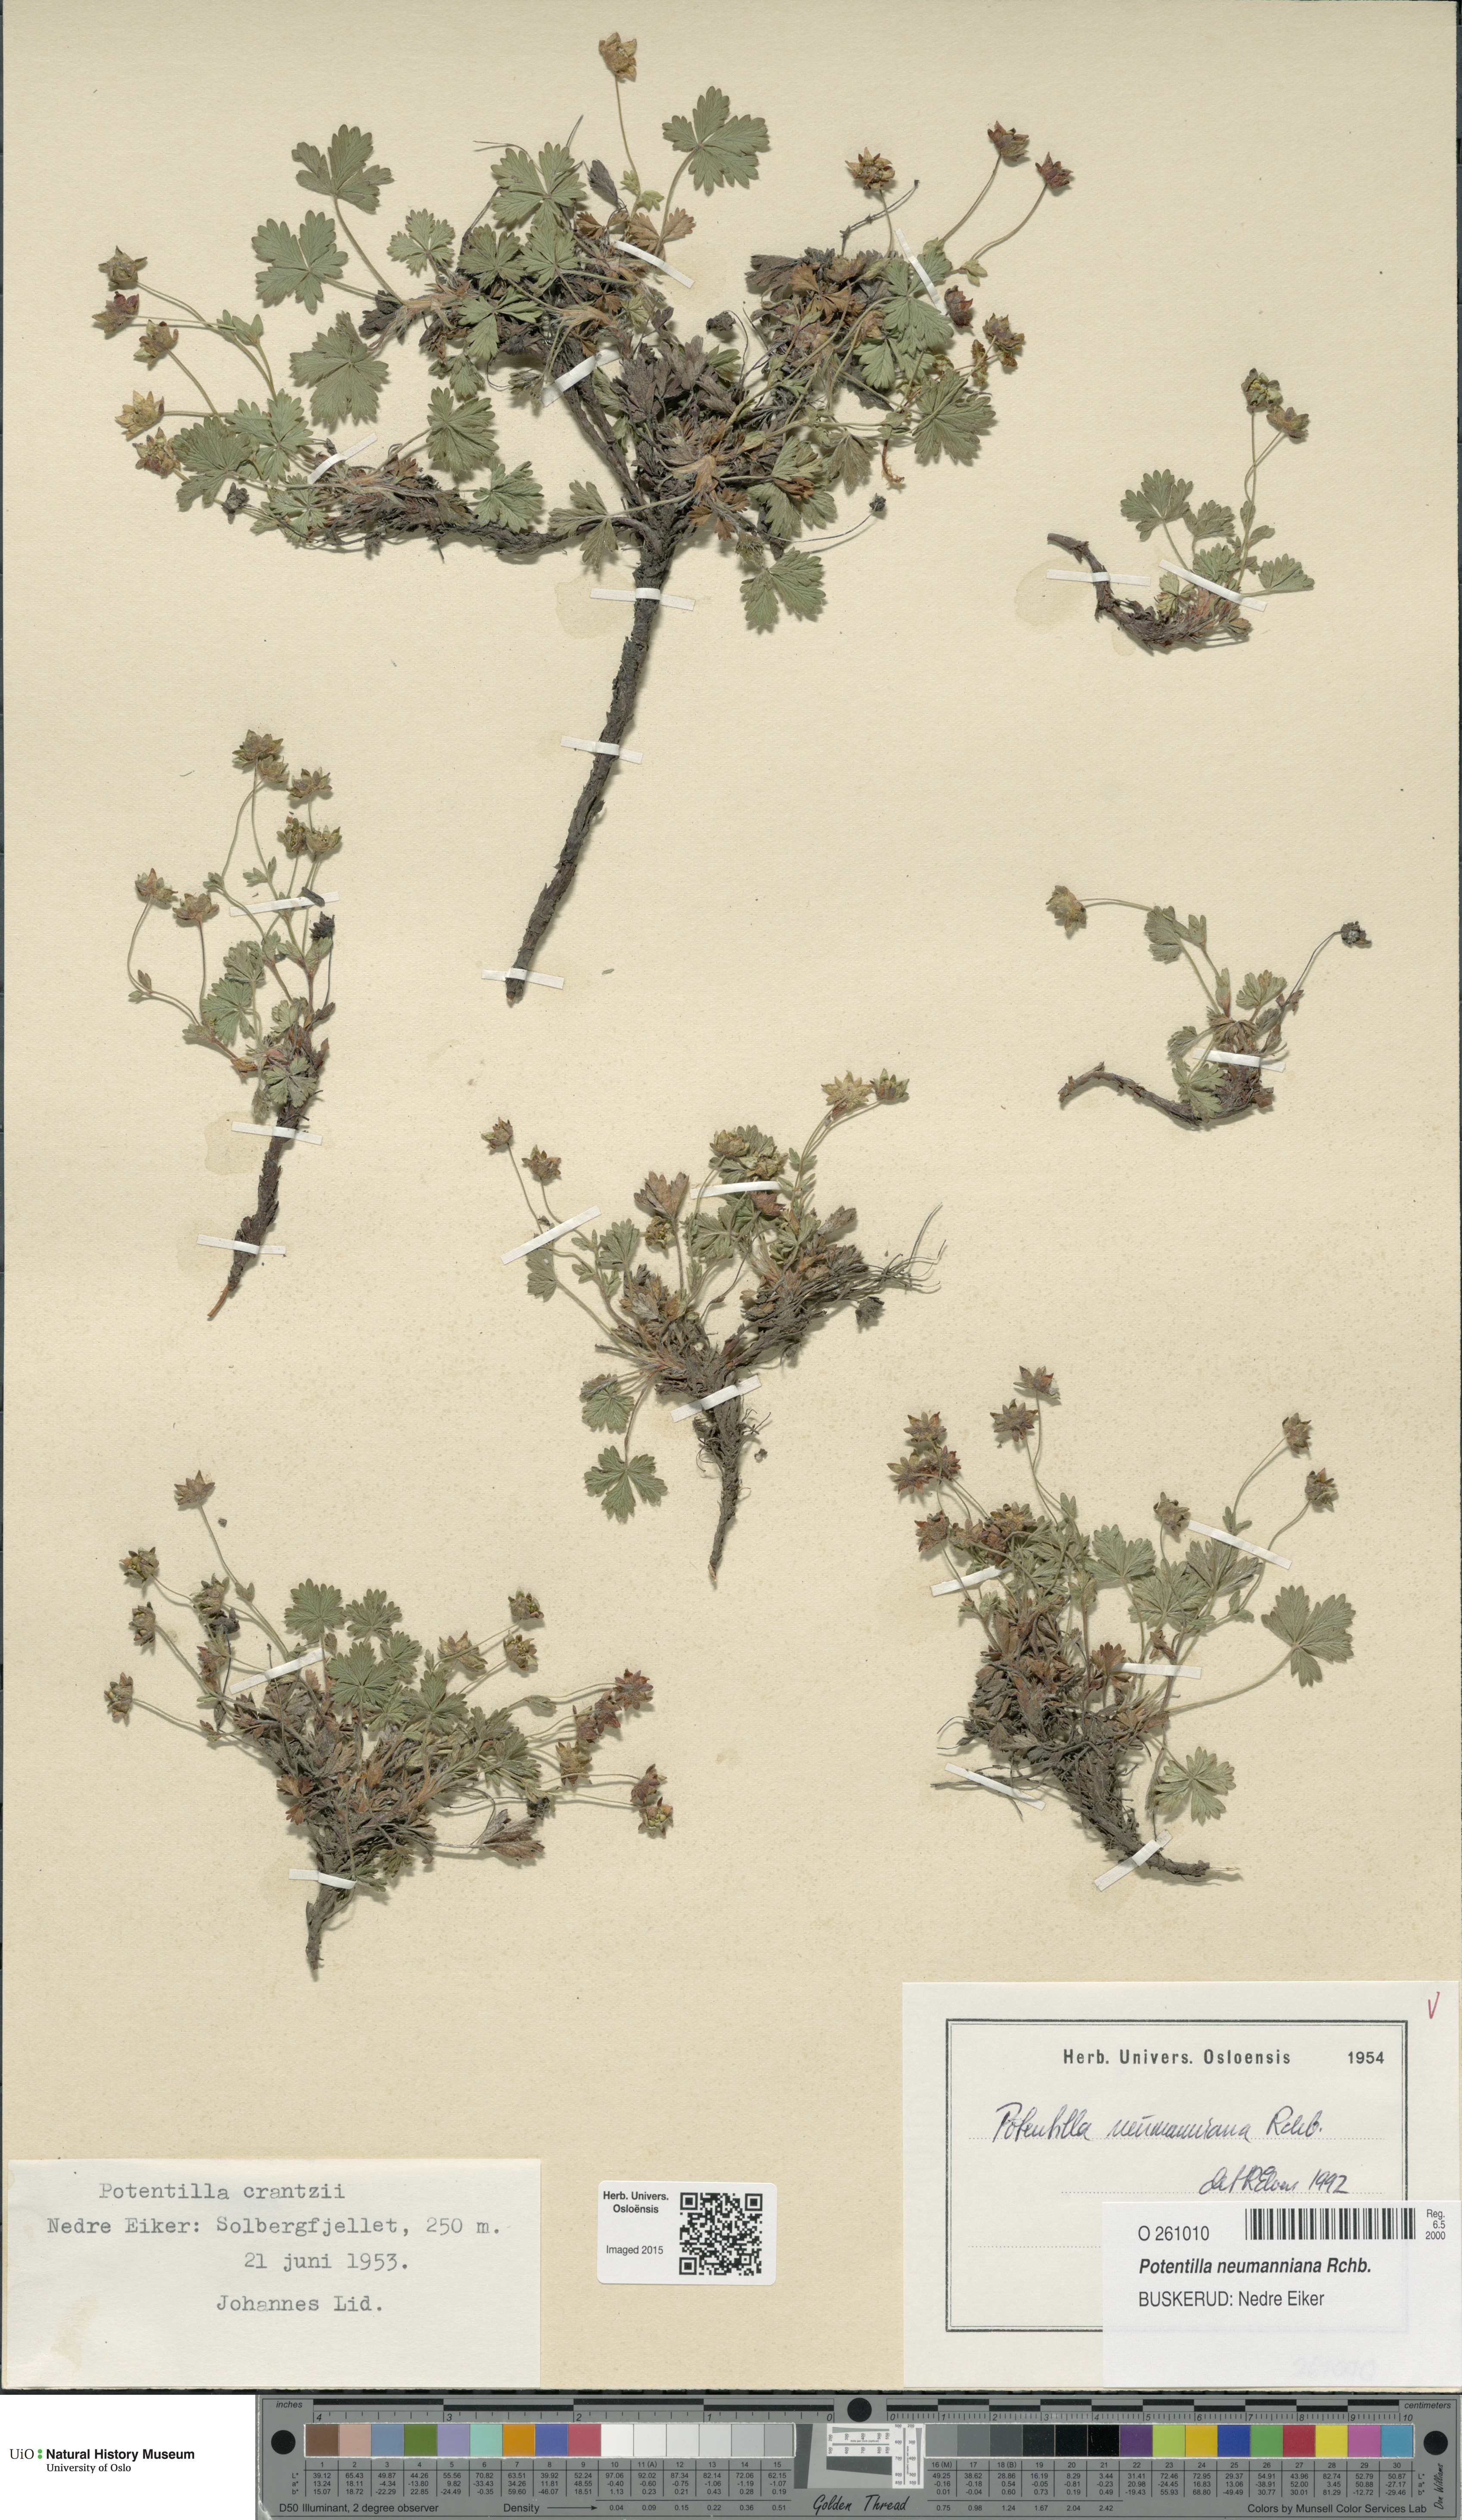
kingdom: Plantae
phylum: Tracheophyta
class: Magnoliopsida
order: Rosales
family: Rosaceae
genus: Potentilla
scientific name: Potentilla verna
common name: Spring cinquefoil
